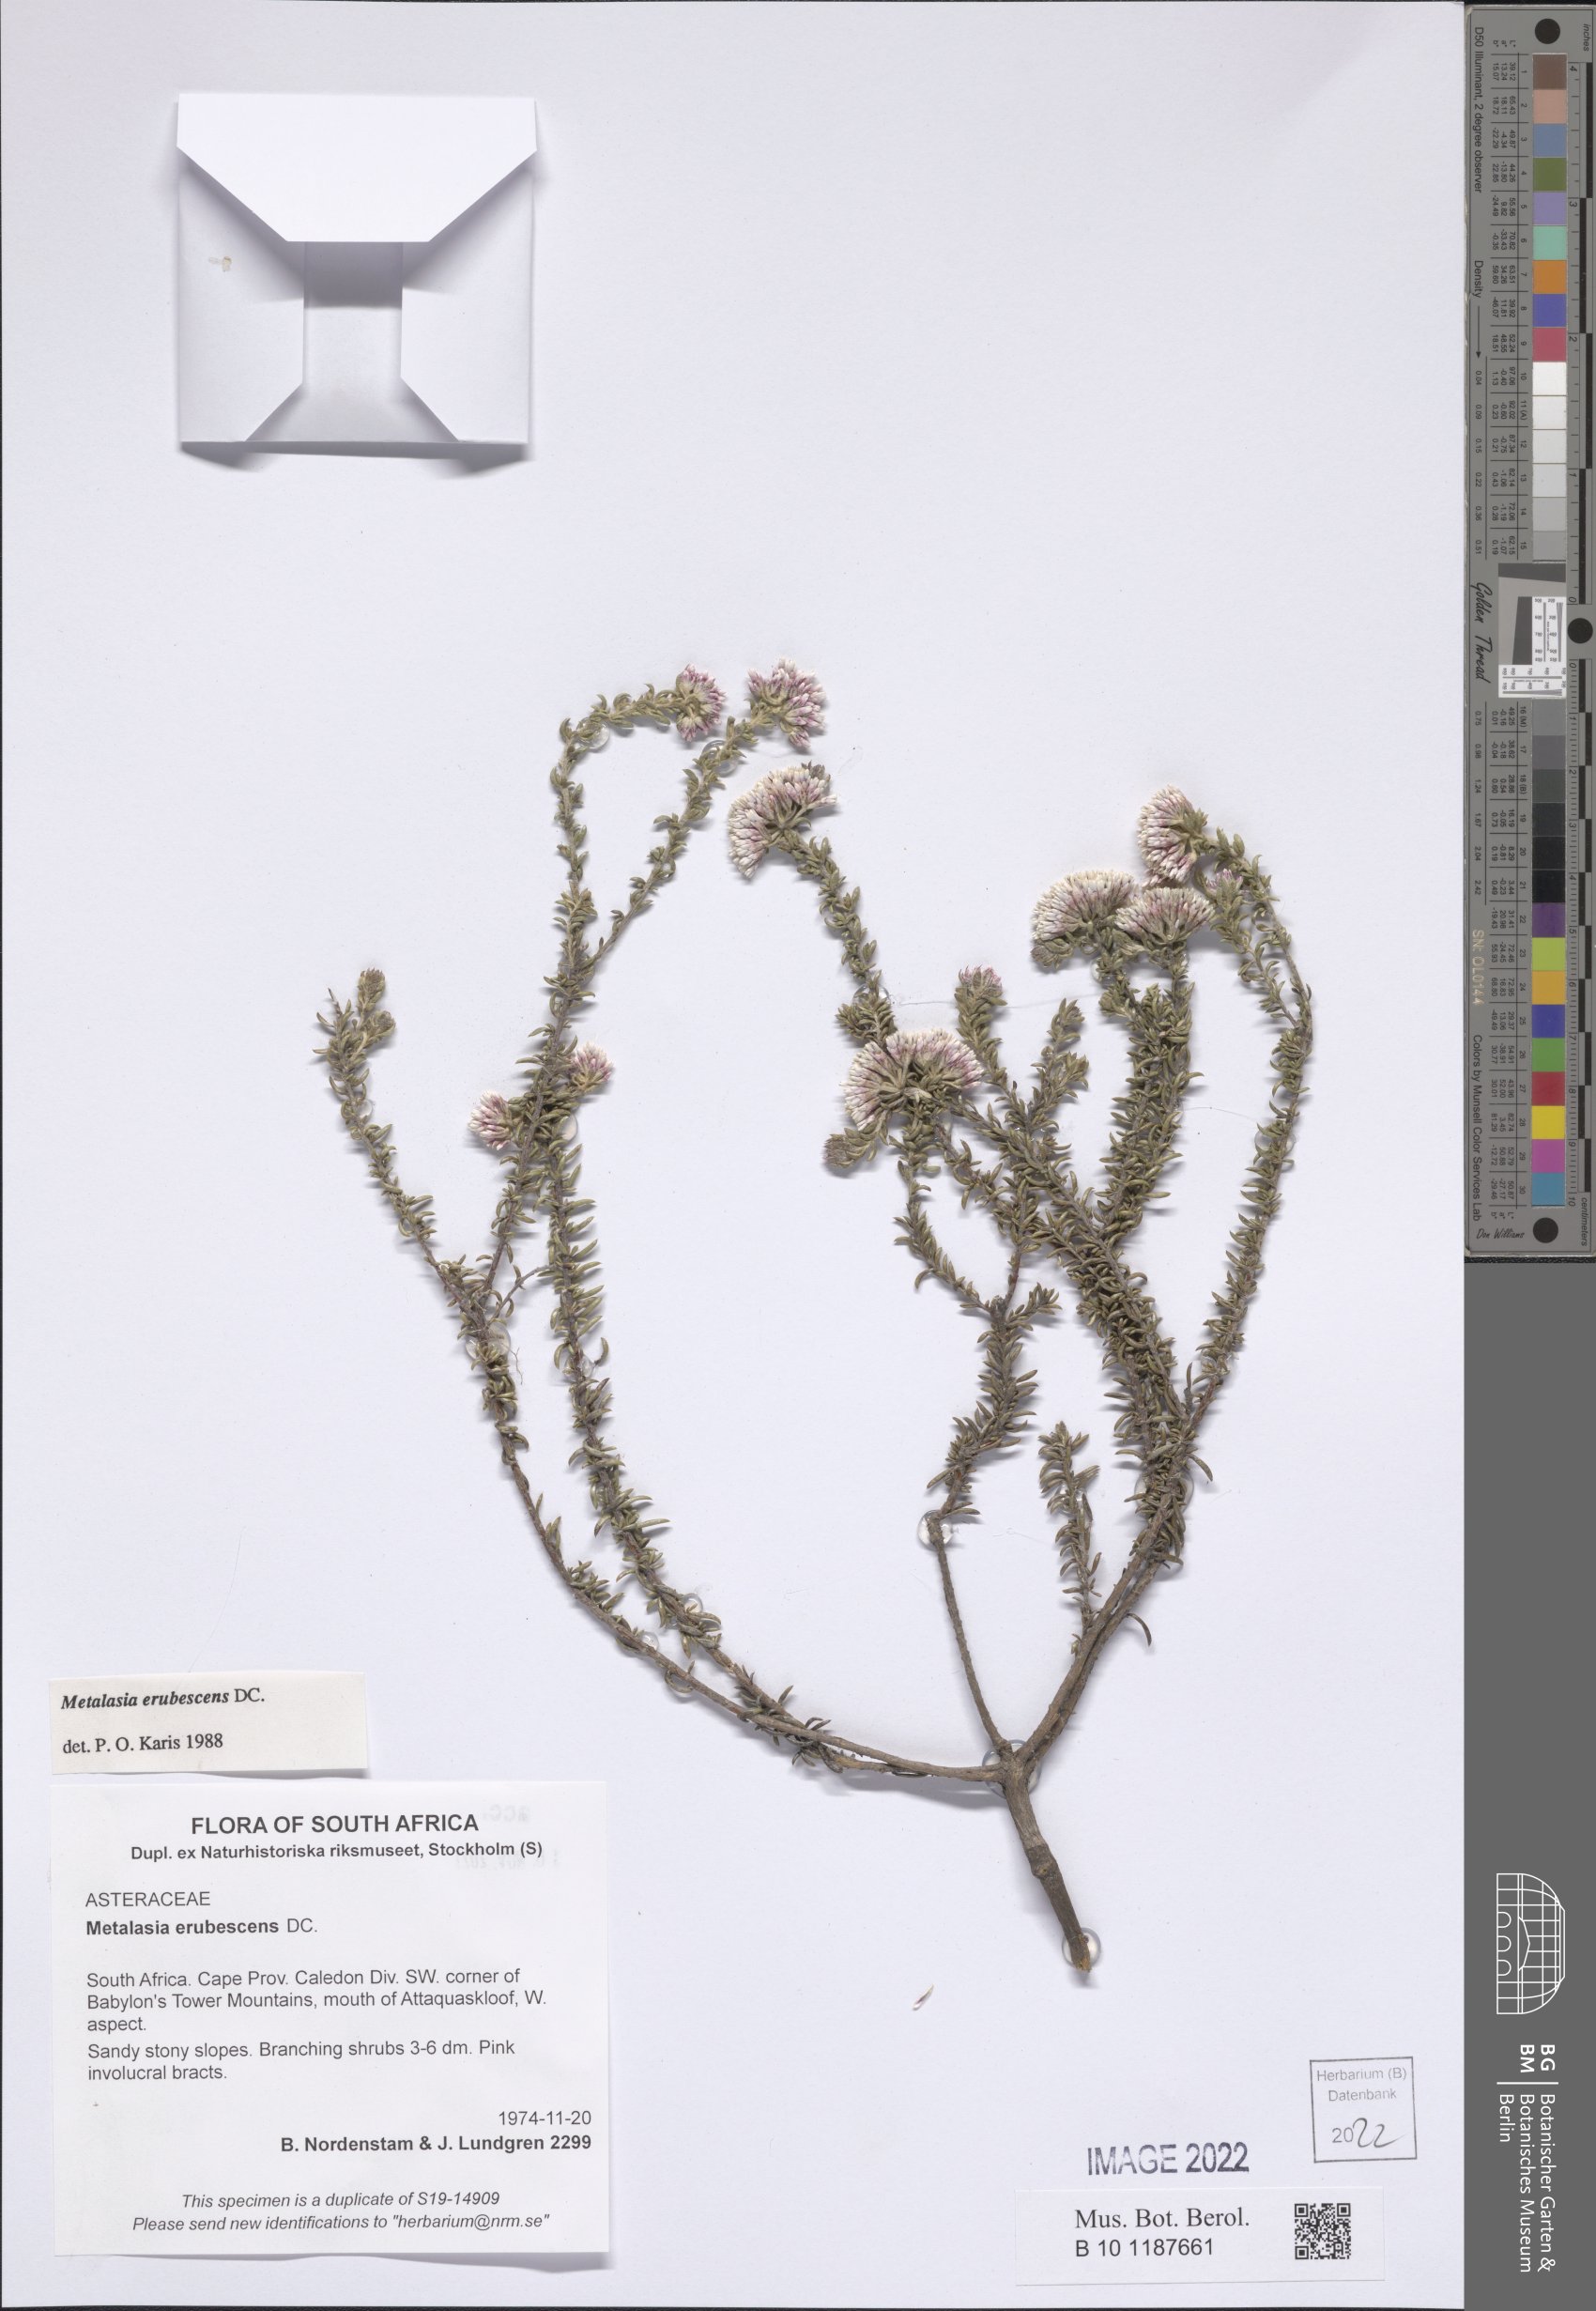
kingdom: Plantae
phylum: Tracheophyta
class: Magnoliopsida
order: Asterales
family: Asteraceae
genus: Metalasia
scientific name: Metalasia erubescens
